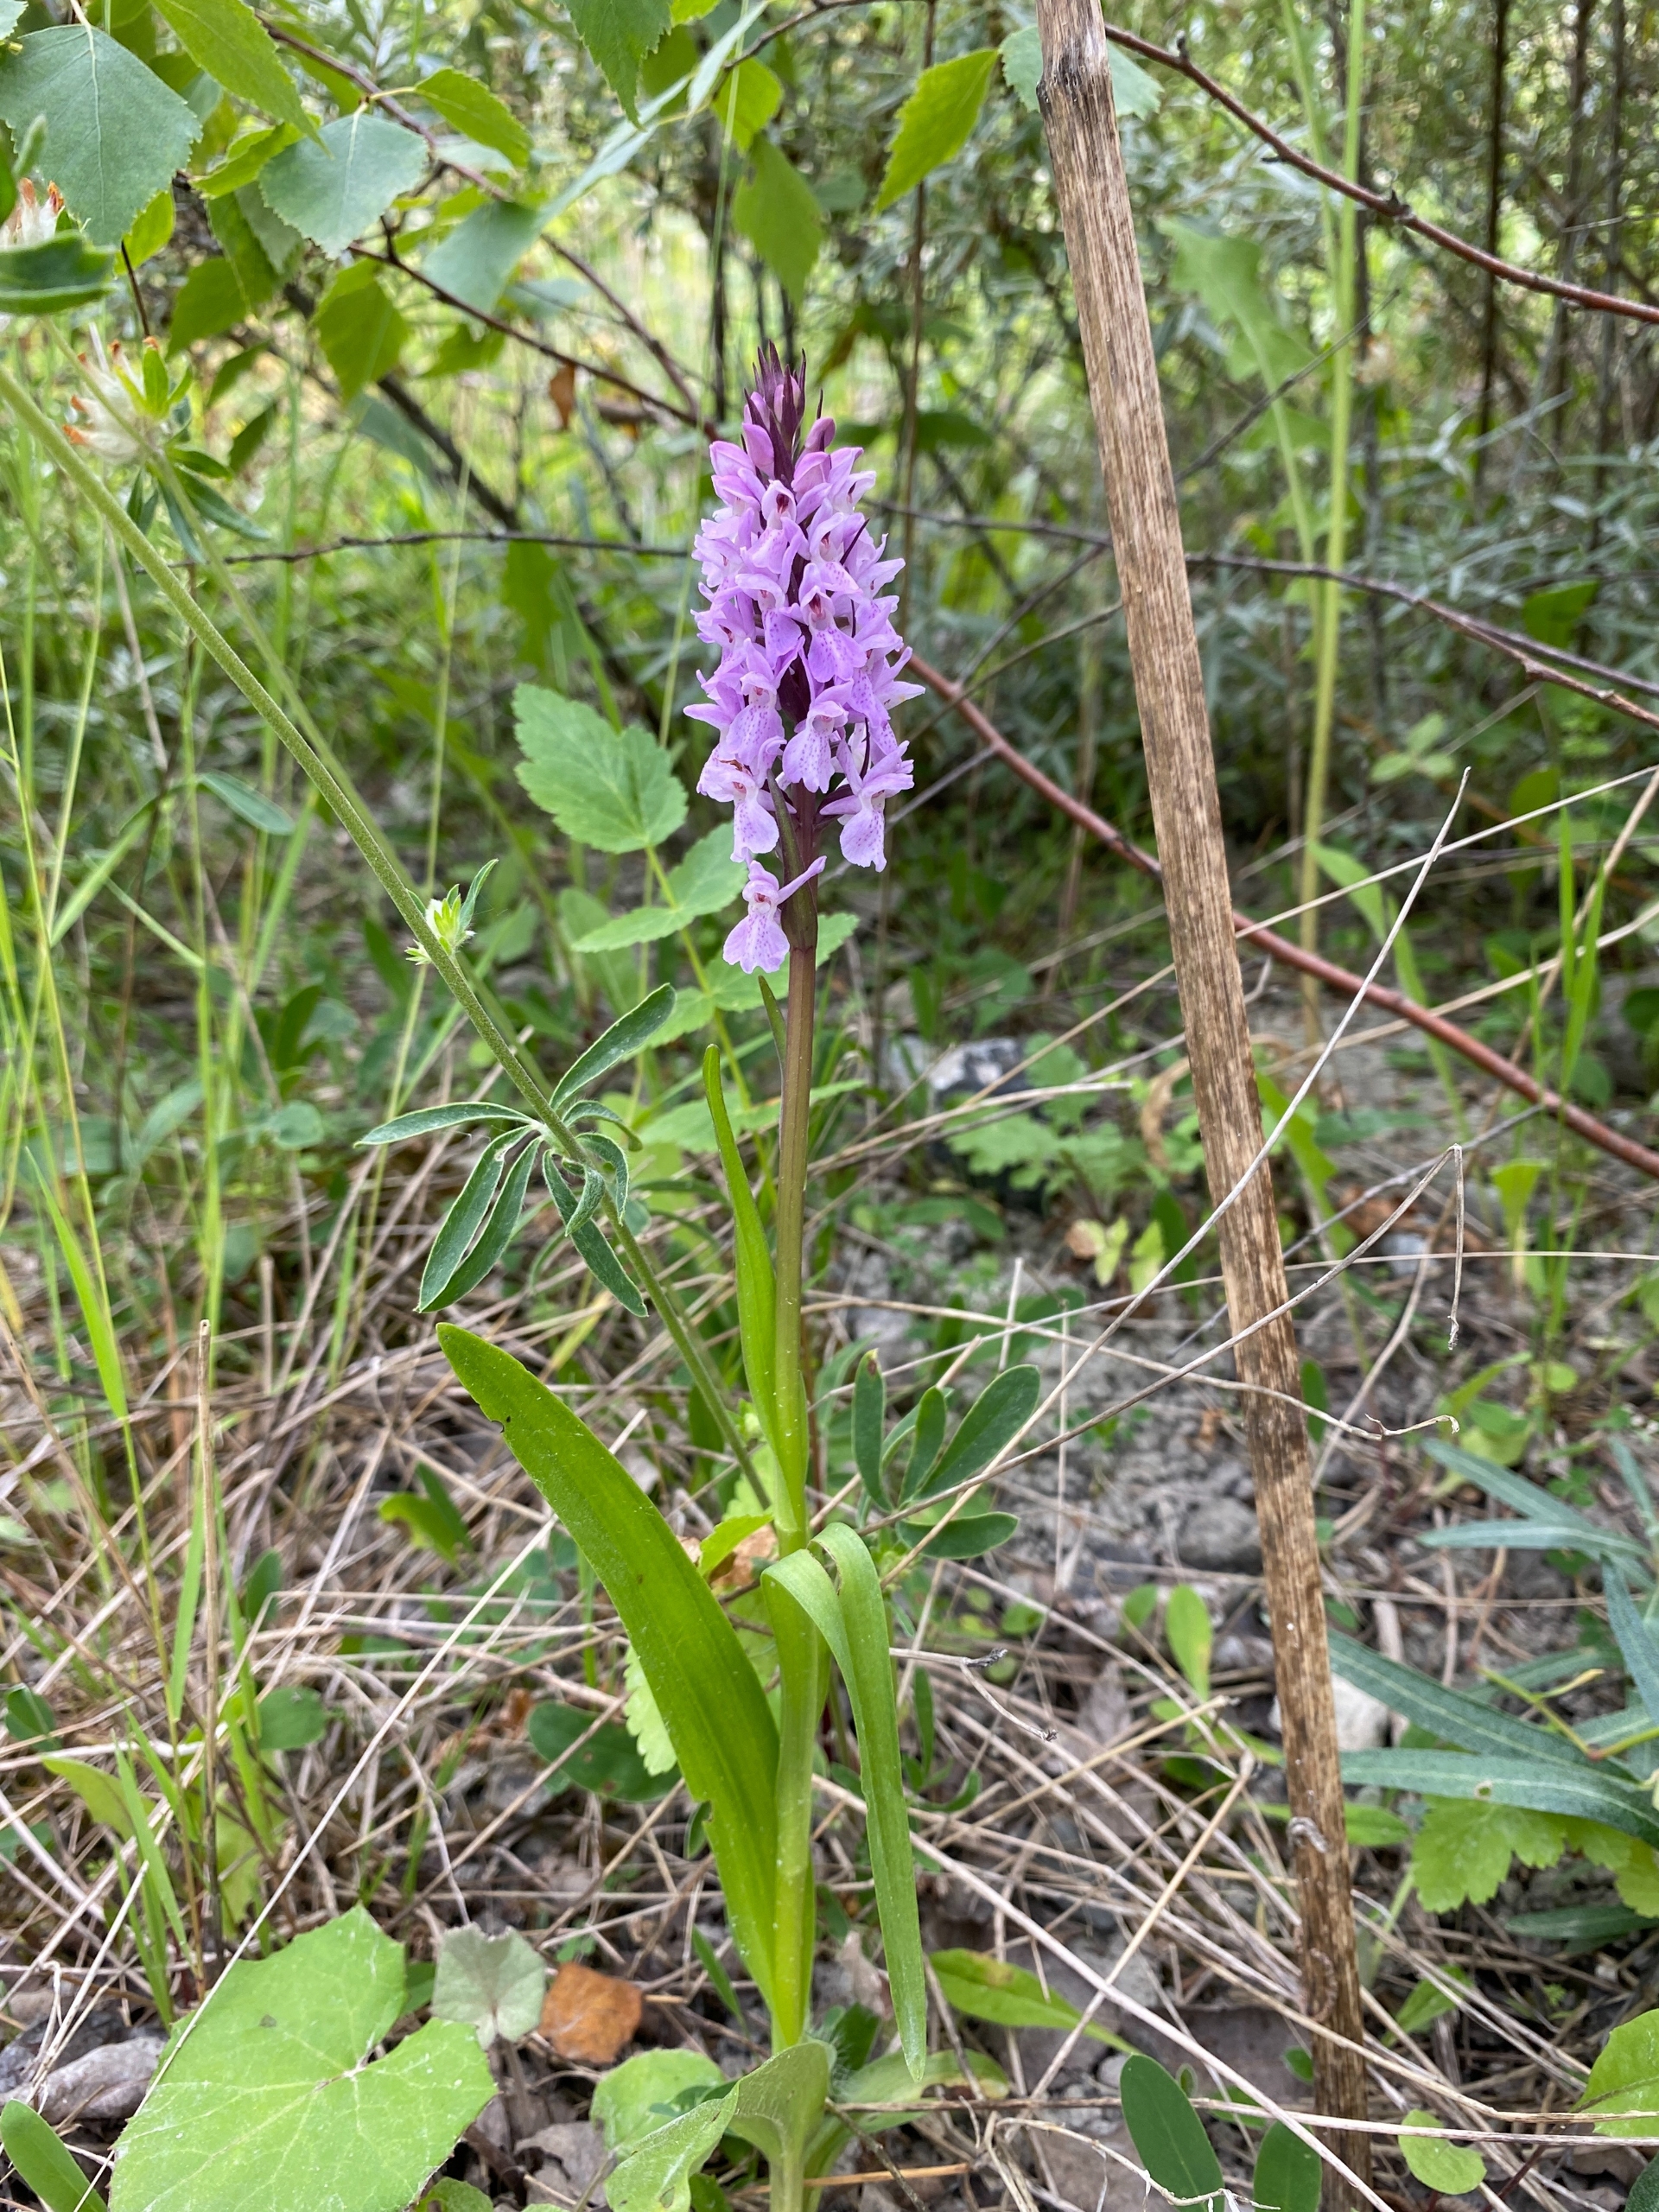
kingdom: Plantae
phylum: Tracheophyta
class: Liliopsida
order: Asparagales
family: Orchidaceae
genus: Dactylorhiza
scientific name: Dactylorhiza majalis
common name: Priklæbet gøgeurt
